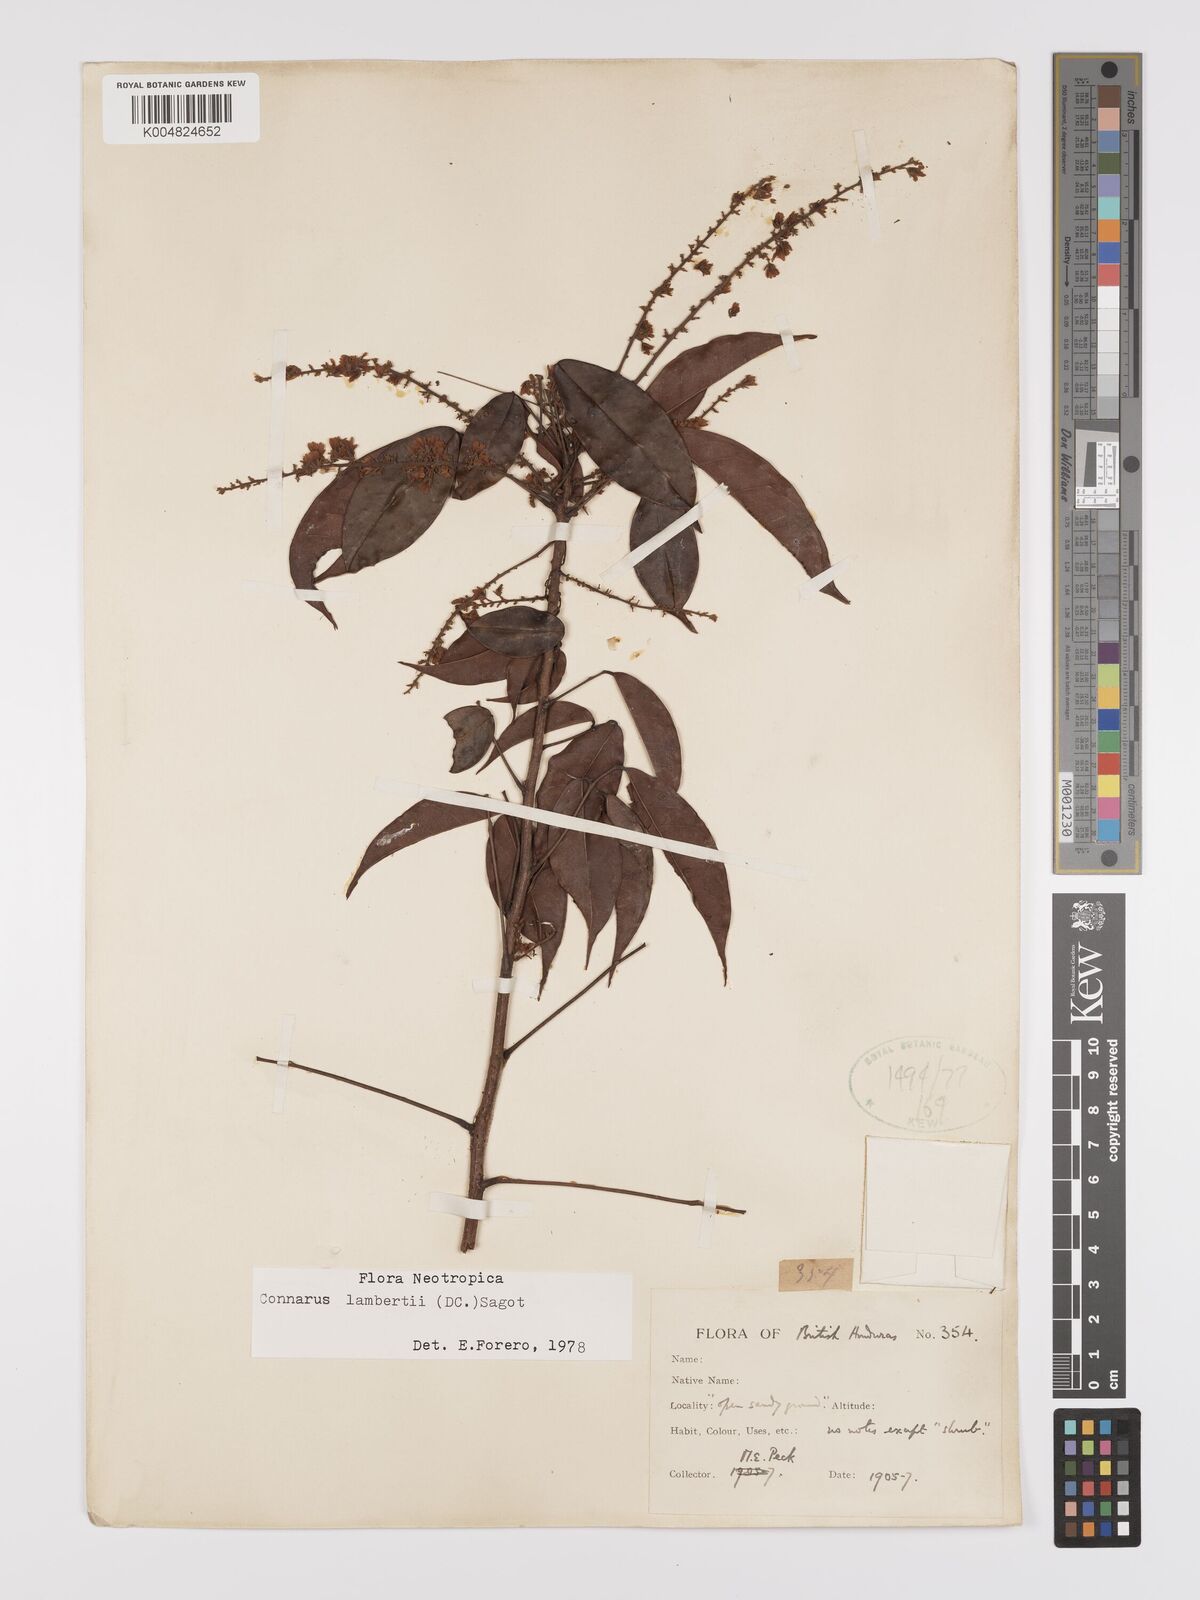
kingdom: Plantae
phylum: Tracheophyta
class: Magnoliopsida
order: Oxalidales
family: Connaraceae
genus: Connarus
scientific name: Connarus lambertii
